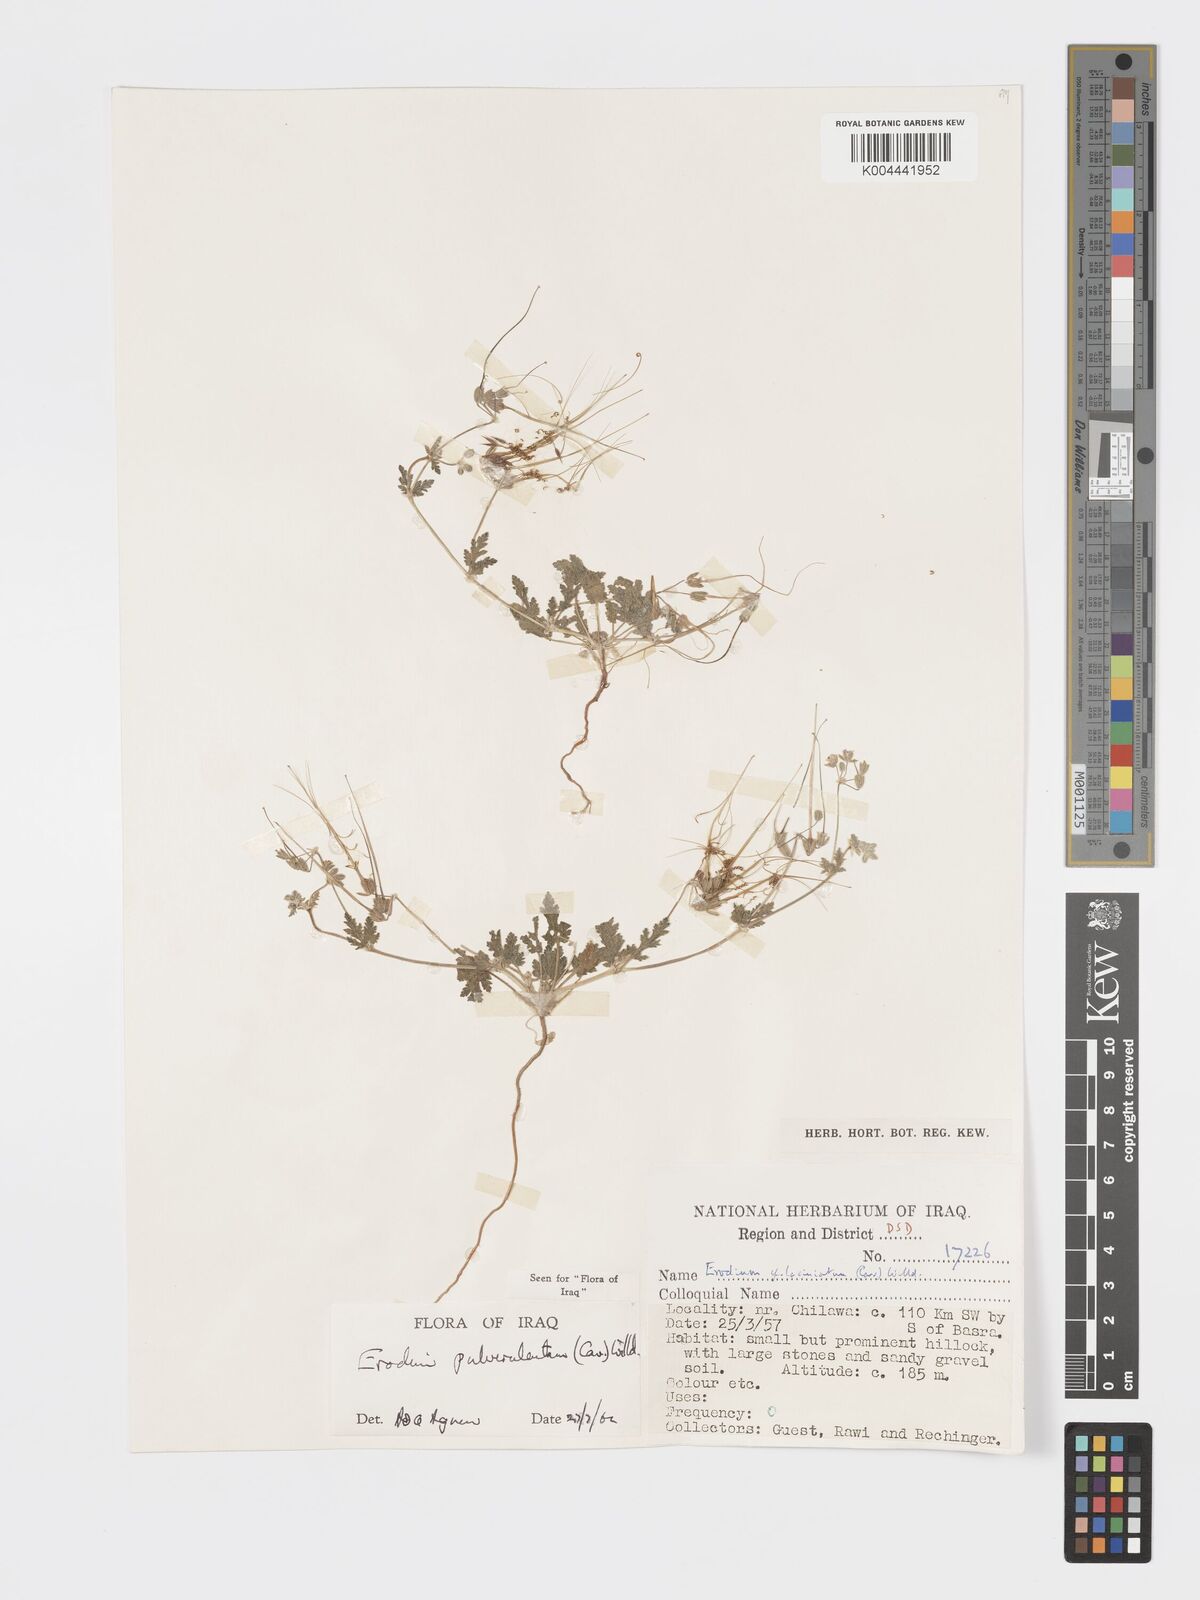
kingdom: Plantae
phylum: Tracheophyta
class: Magnoliopsida
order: Geraniales
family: Geraniaceae
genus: Erodium
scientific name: Erodium laciniatum
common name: Cutleaf stork's bill
